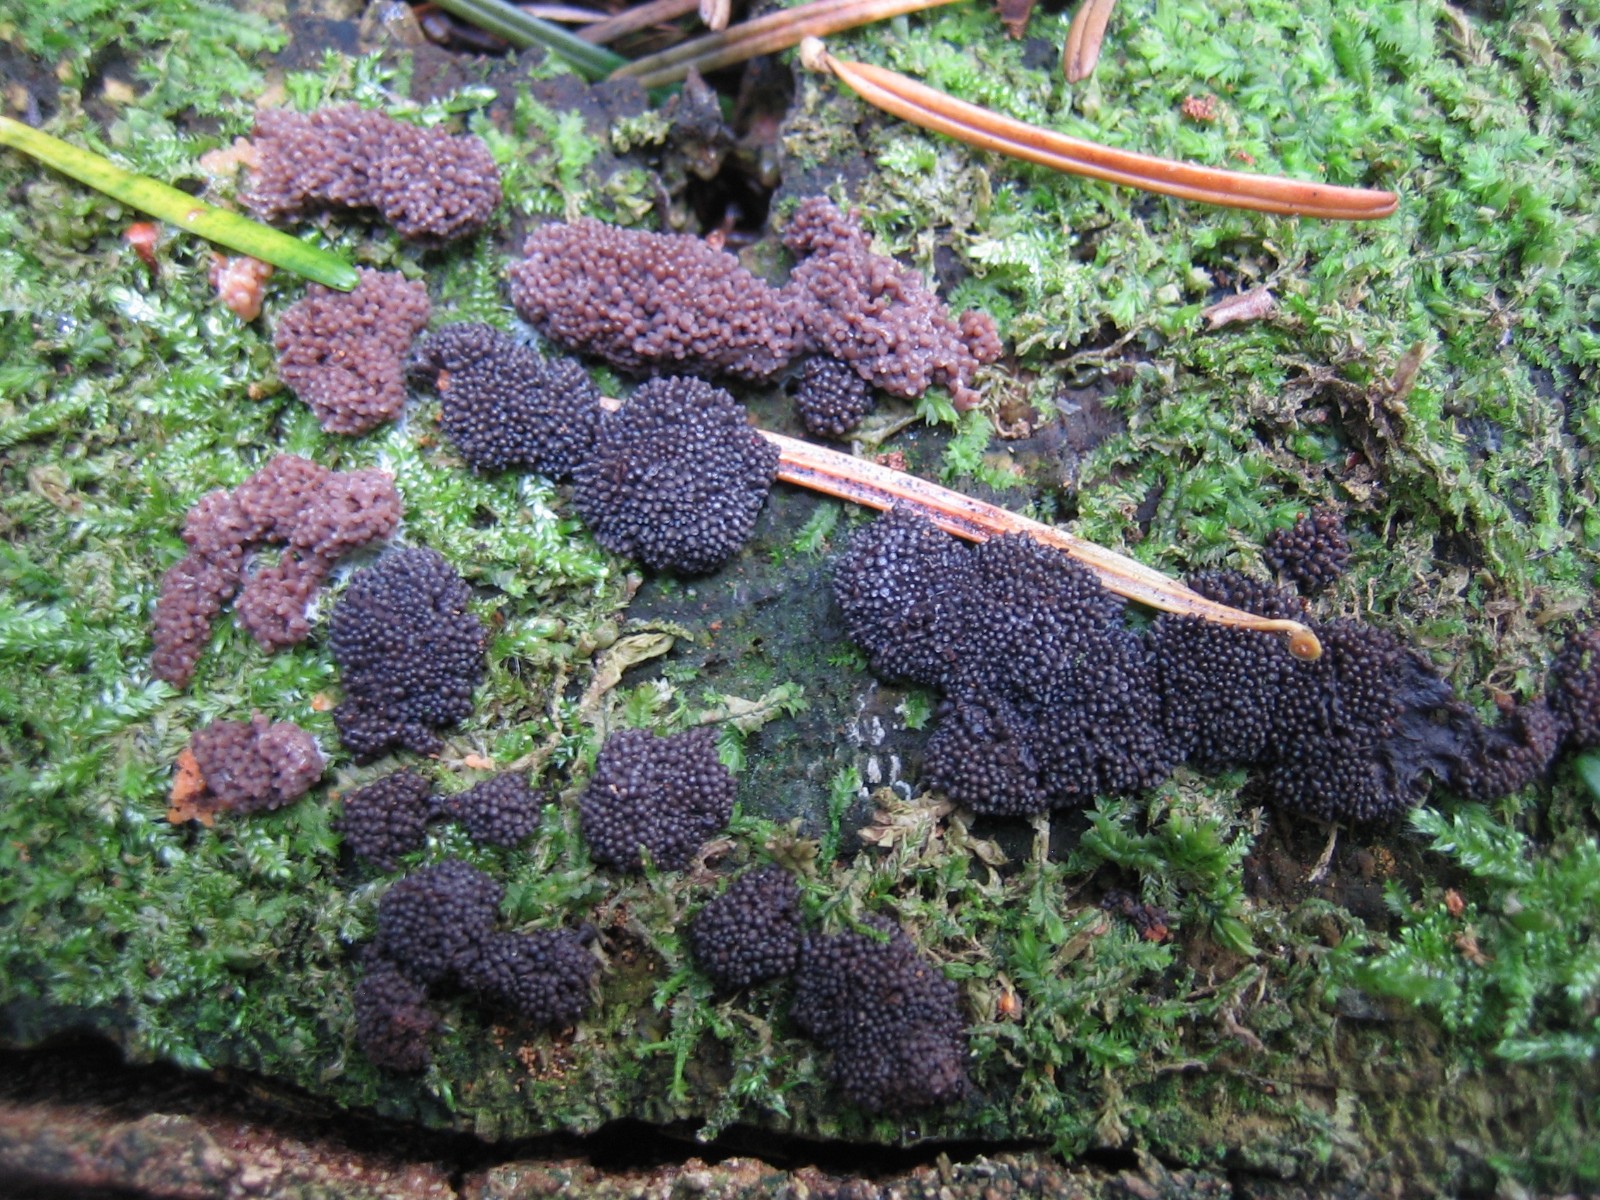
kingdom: Protozoa
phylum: Mycetozoa
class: Myxomycetes
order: Cribrariales
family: Tubiferaceae
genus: Tubifera
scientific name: Tubifera ferruginosa
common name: kanel-støvrør
